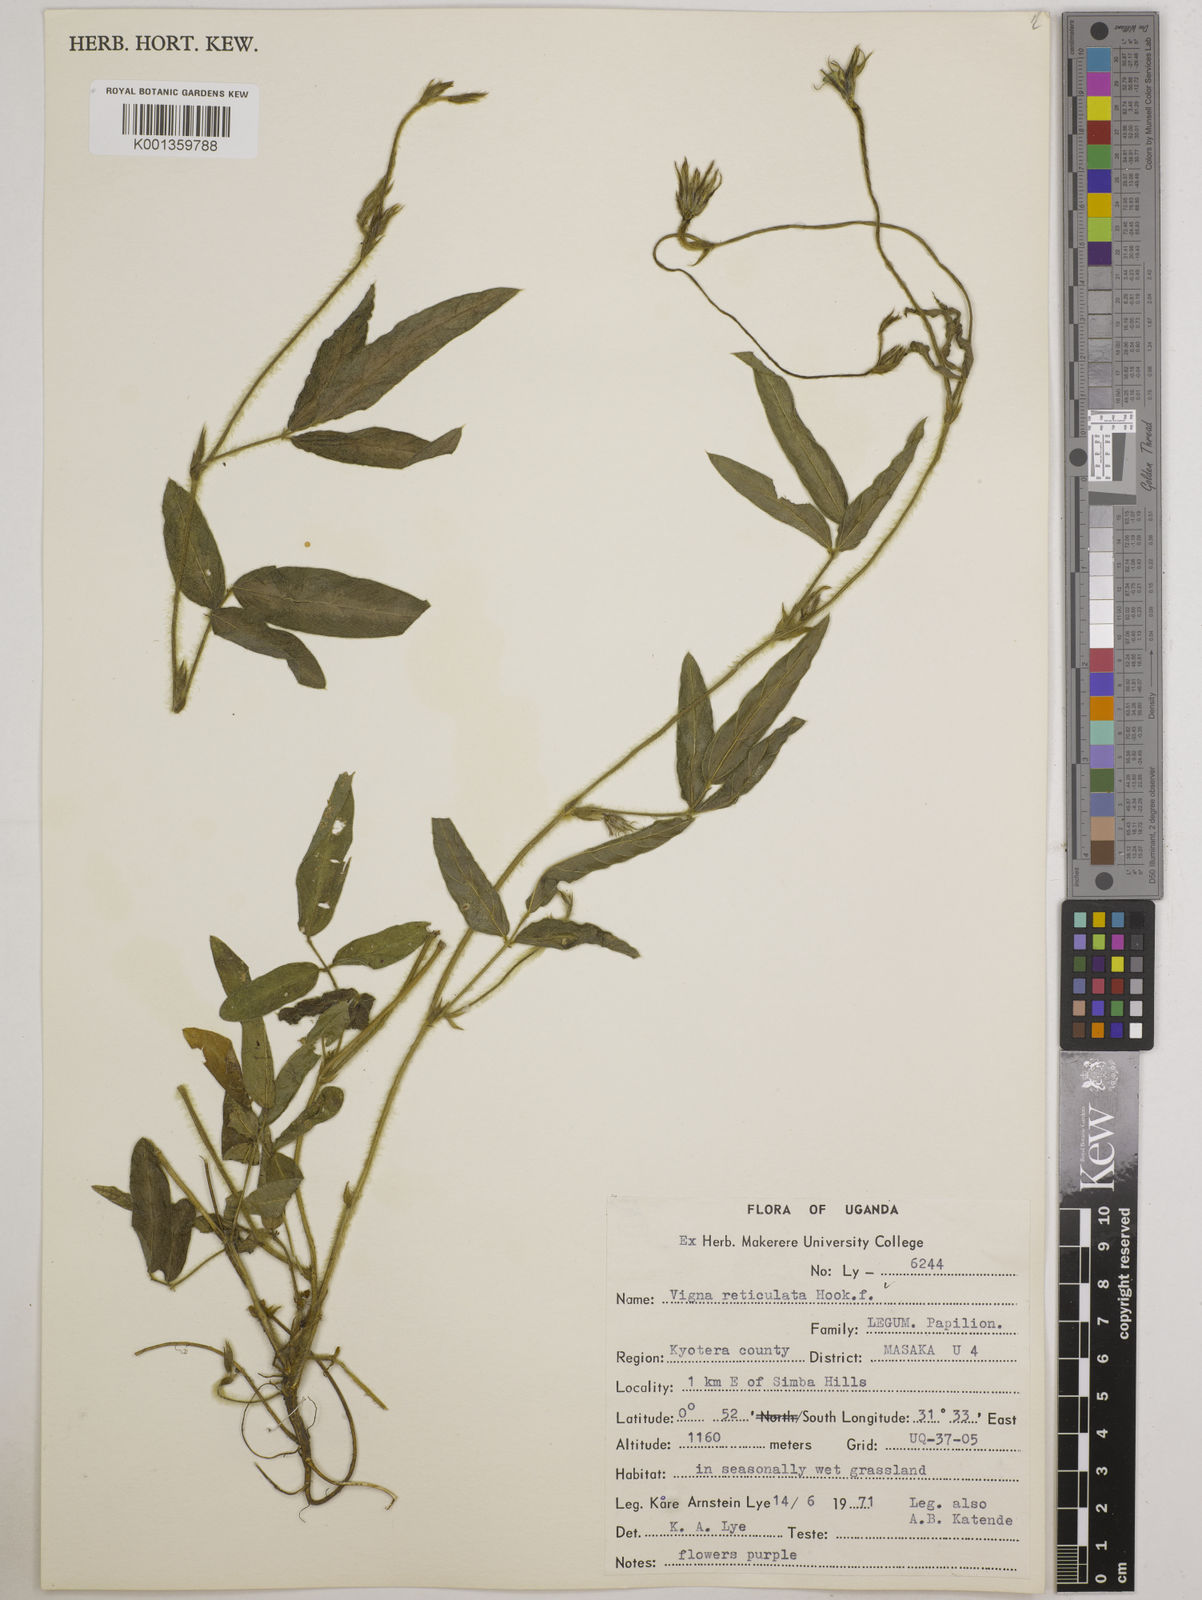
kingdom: Plantae
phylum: Tracheophyta
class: Magnoliopsida
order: Fabales
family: Fabaceae
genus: Vigna
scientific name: Vigna reticulata
